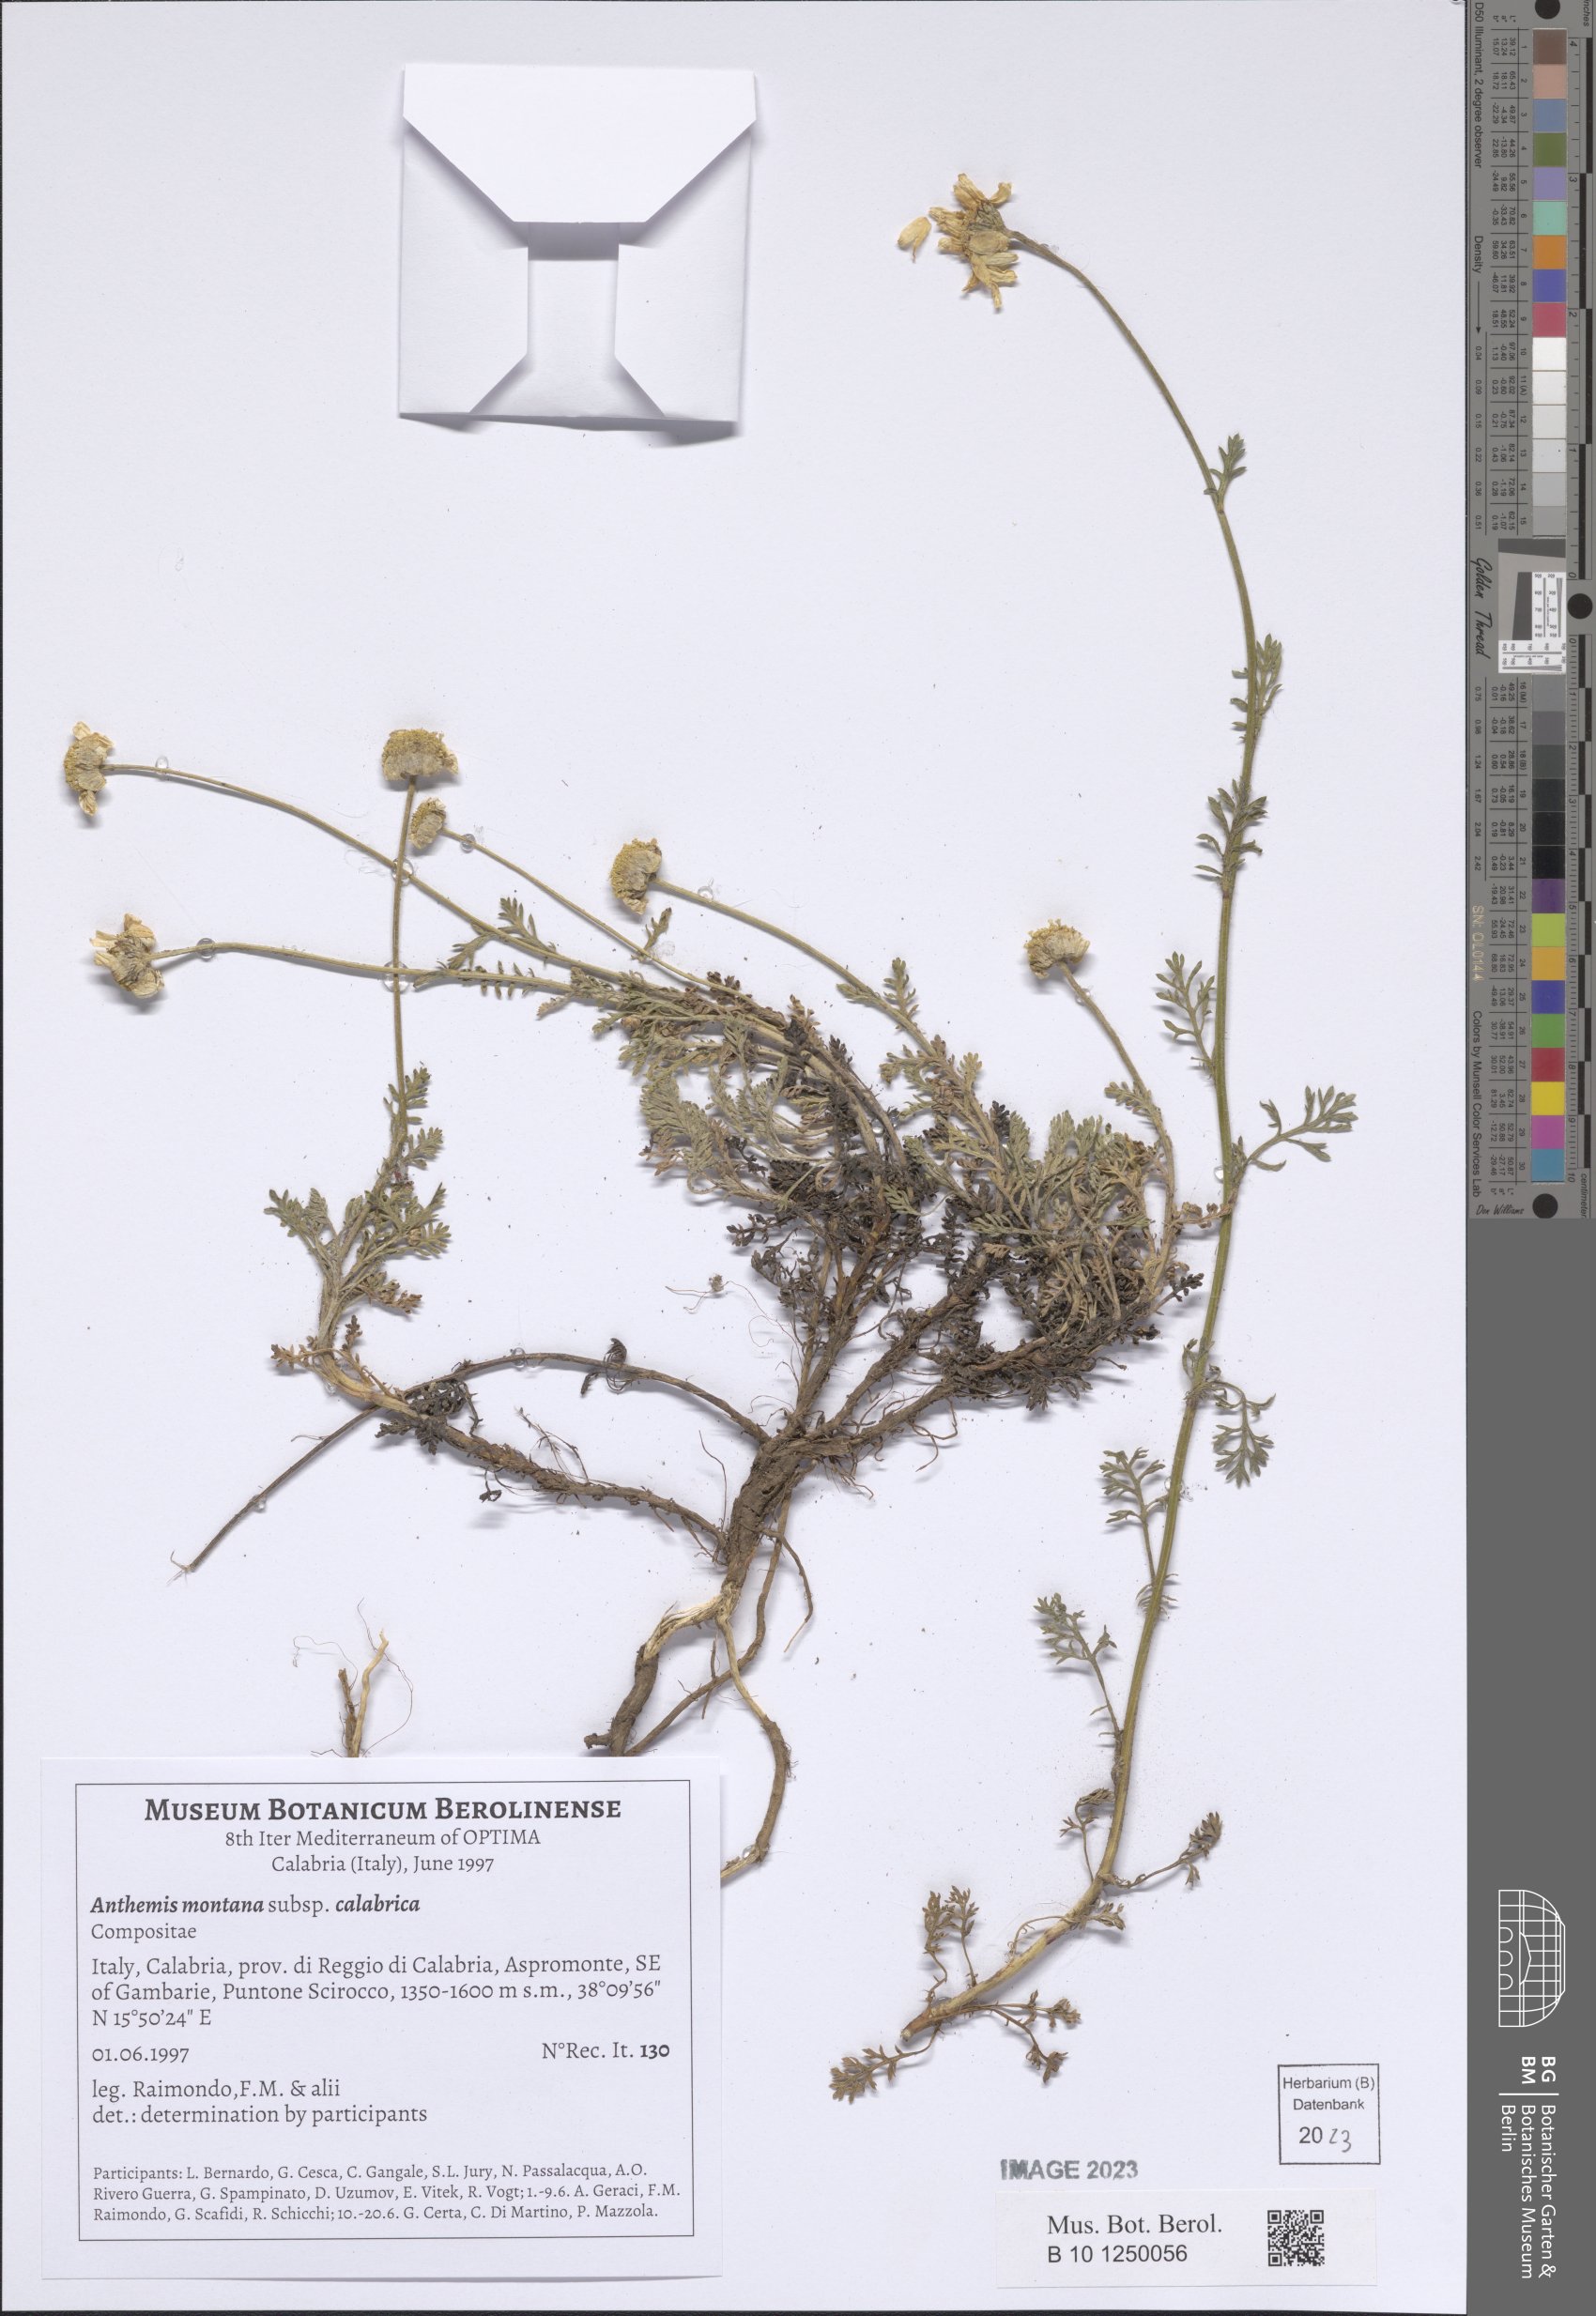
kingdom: Plantae
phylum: Tracheophyta
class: Magnoliopsida
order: Asterales
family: Asteraceae
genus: Anthemis
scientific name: Anthemis cretica
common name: Mountain dog-daisy
